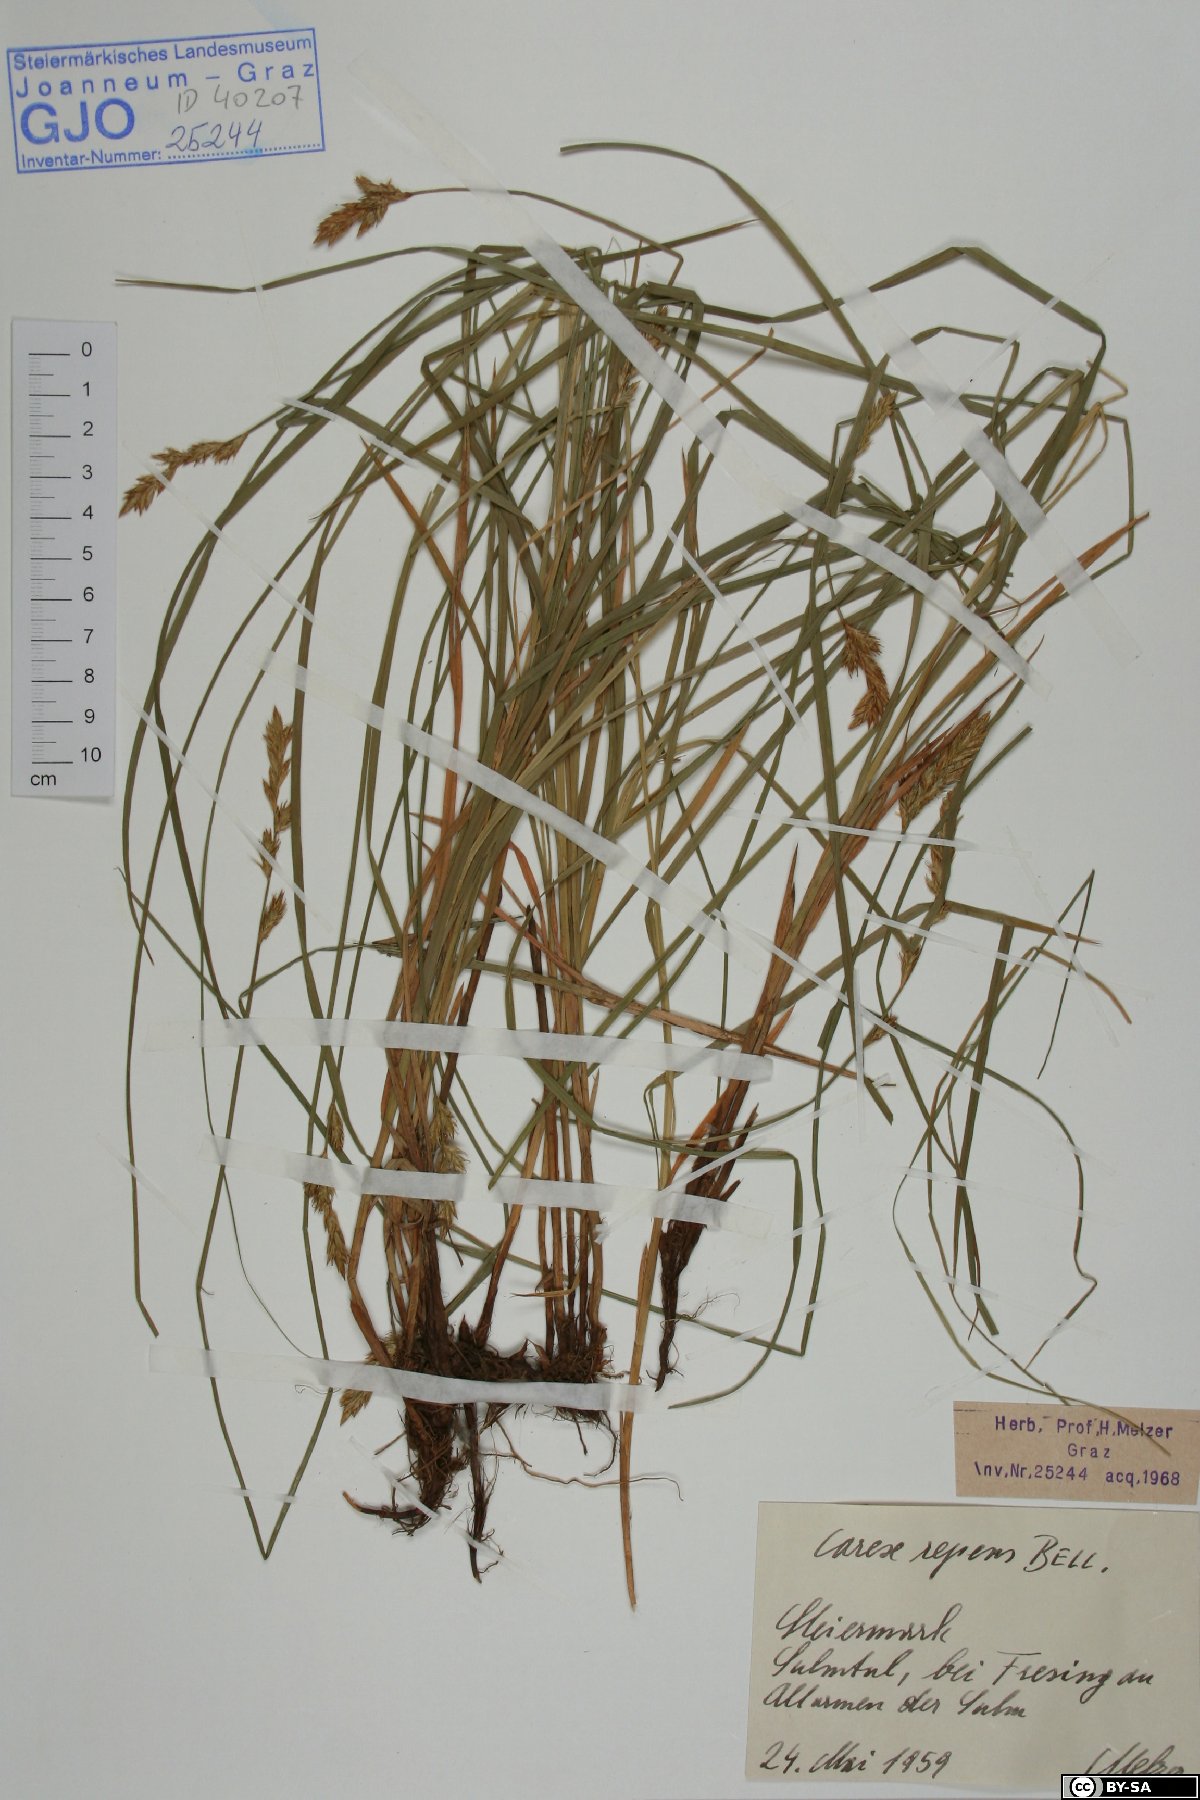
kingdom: Plantae
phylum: Tracheophyta
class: Liliopsida
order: Poales
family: Cyperaceae
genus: Carex
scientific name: Carex repens
